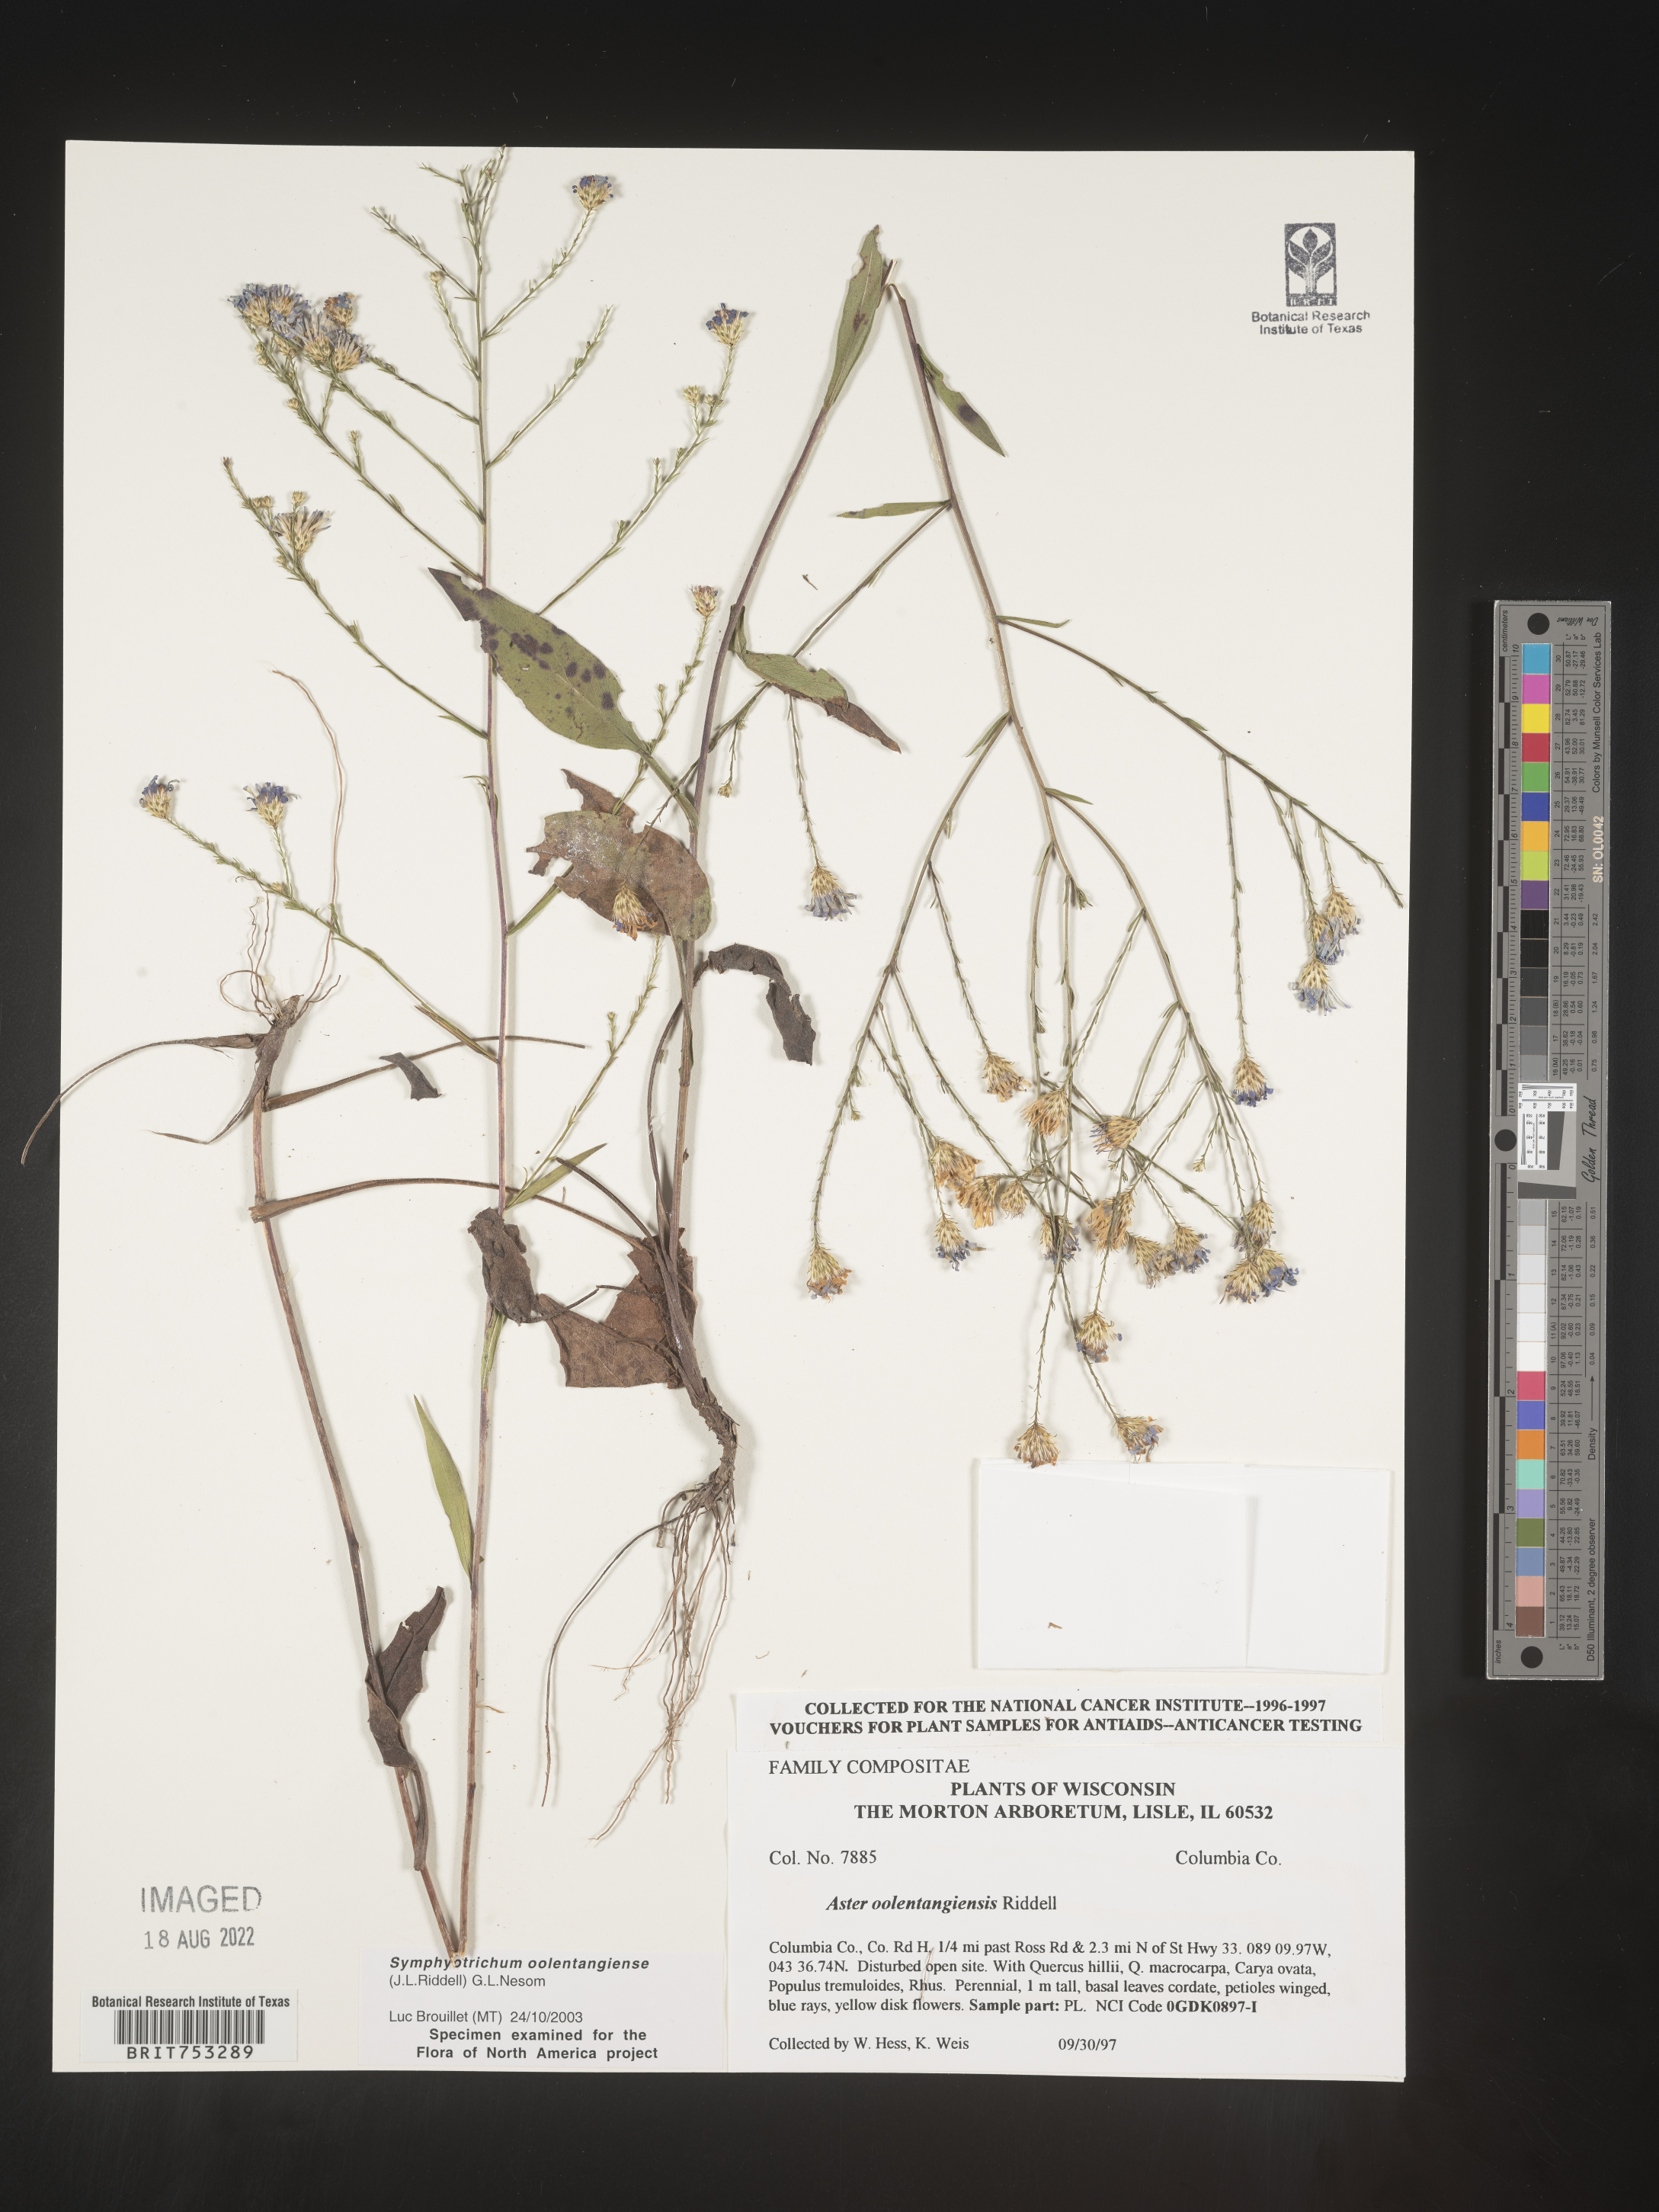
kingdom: Plantae
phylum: Tracheophyta
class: Magnoliopsida
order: Asterales
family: Asteraceae
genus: Symphyotrichum
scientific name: Symphyotrichum oolentangiense
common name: Azure aster
